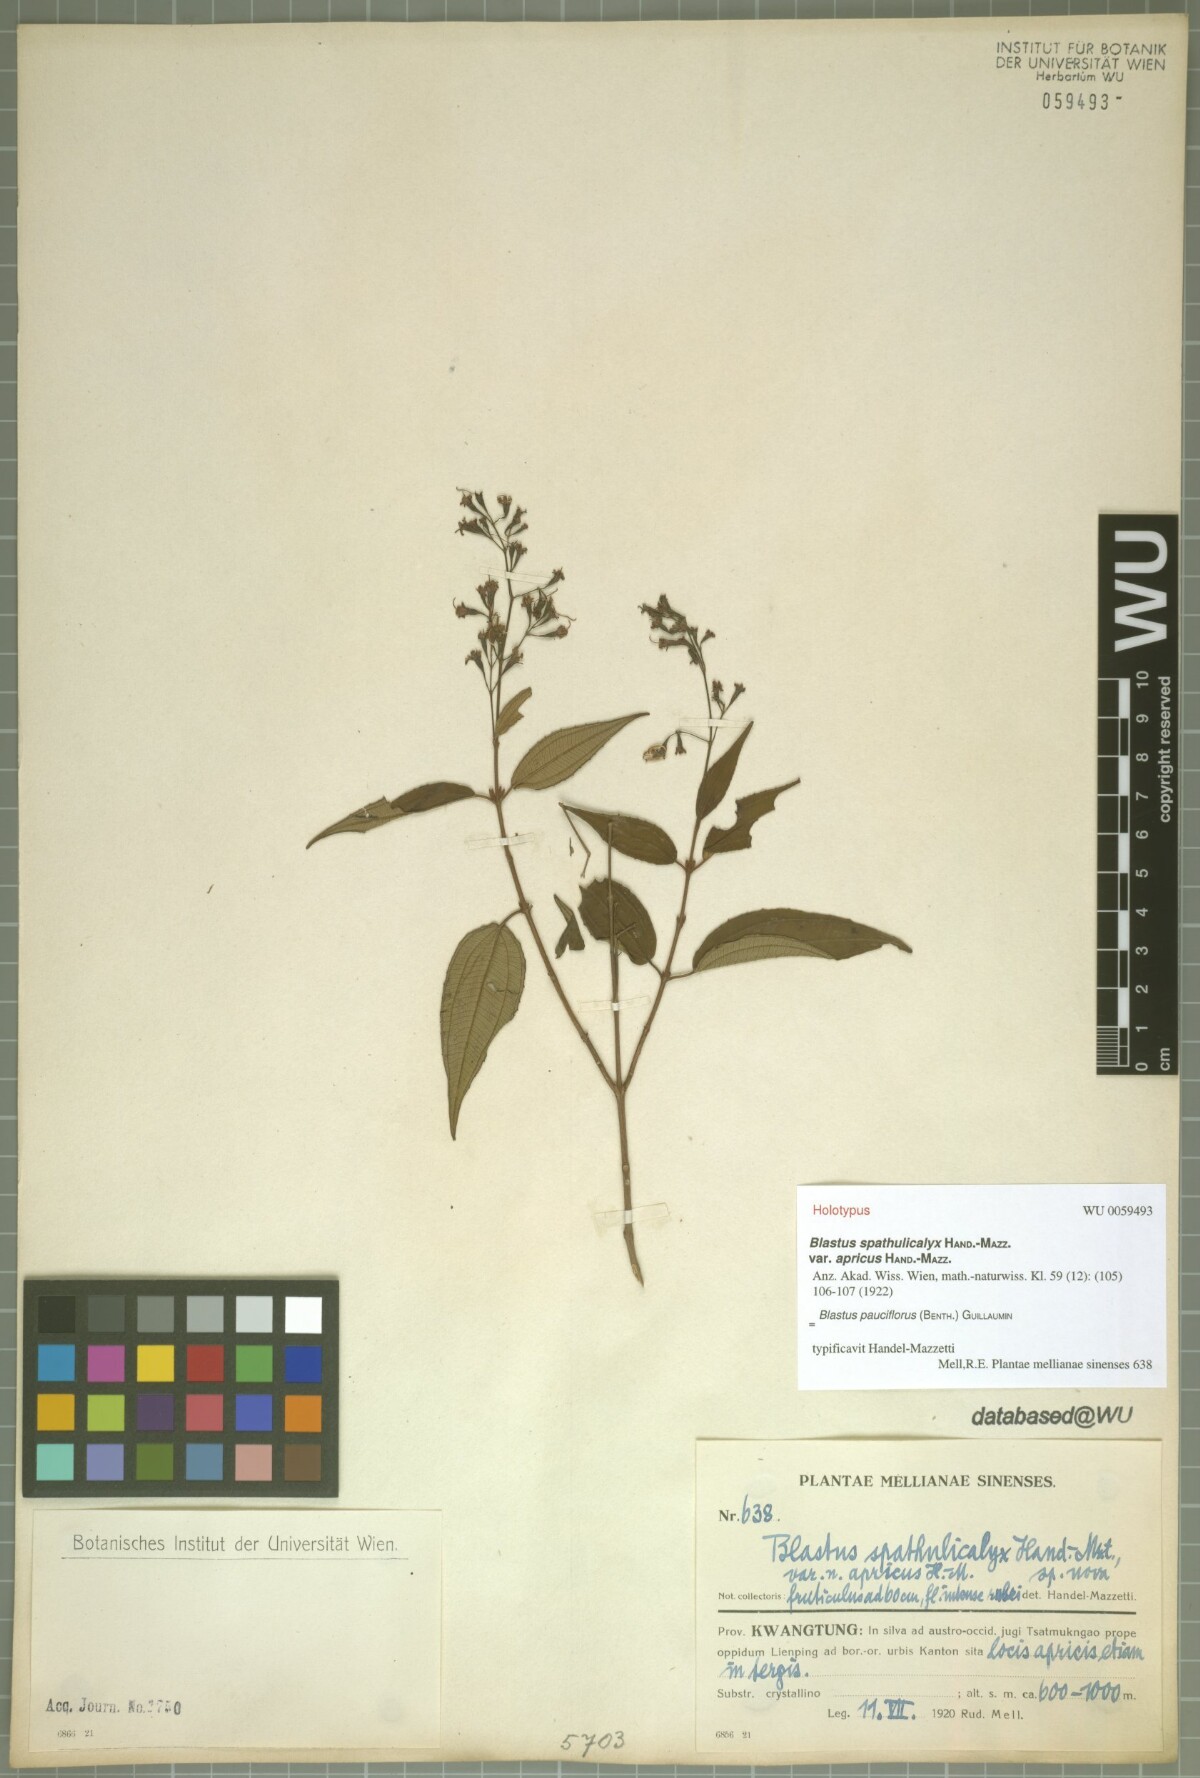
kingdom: Plantae
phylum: Tracheophyta
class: Magnoliopsida
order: Myrtales
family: Melastomataceae
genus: Blastus
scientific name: Blastus pauciflorus
